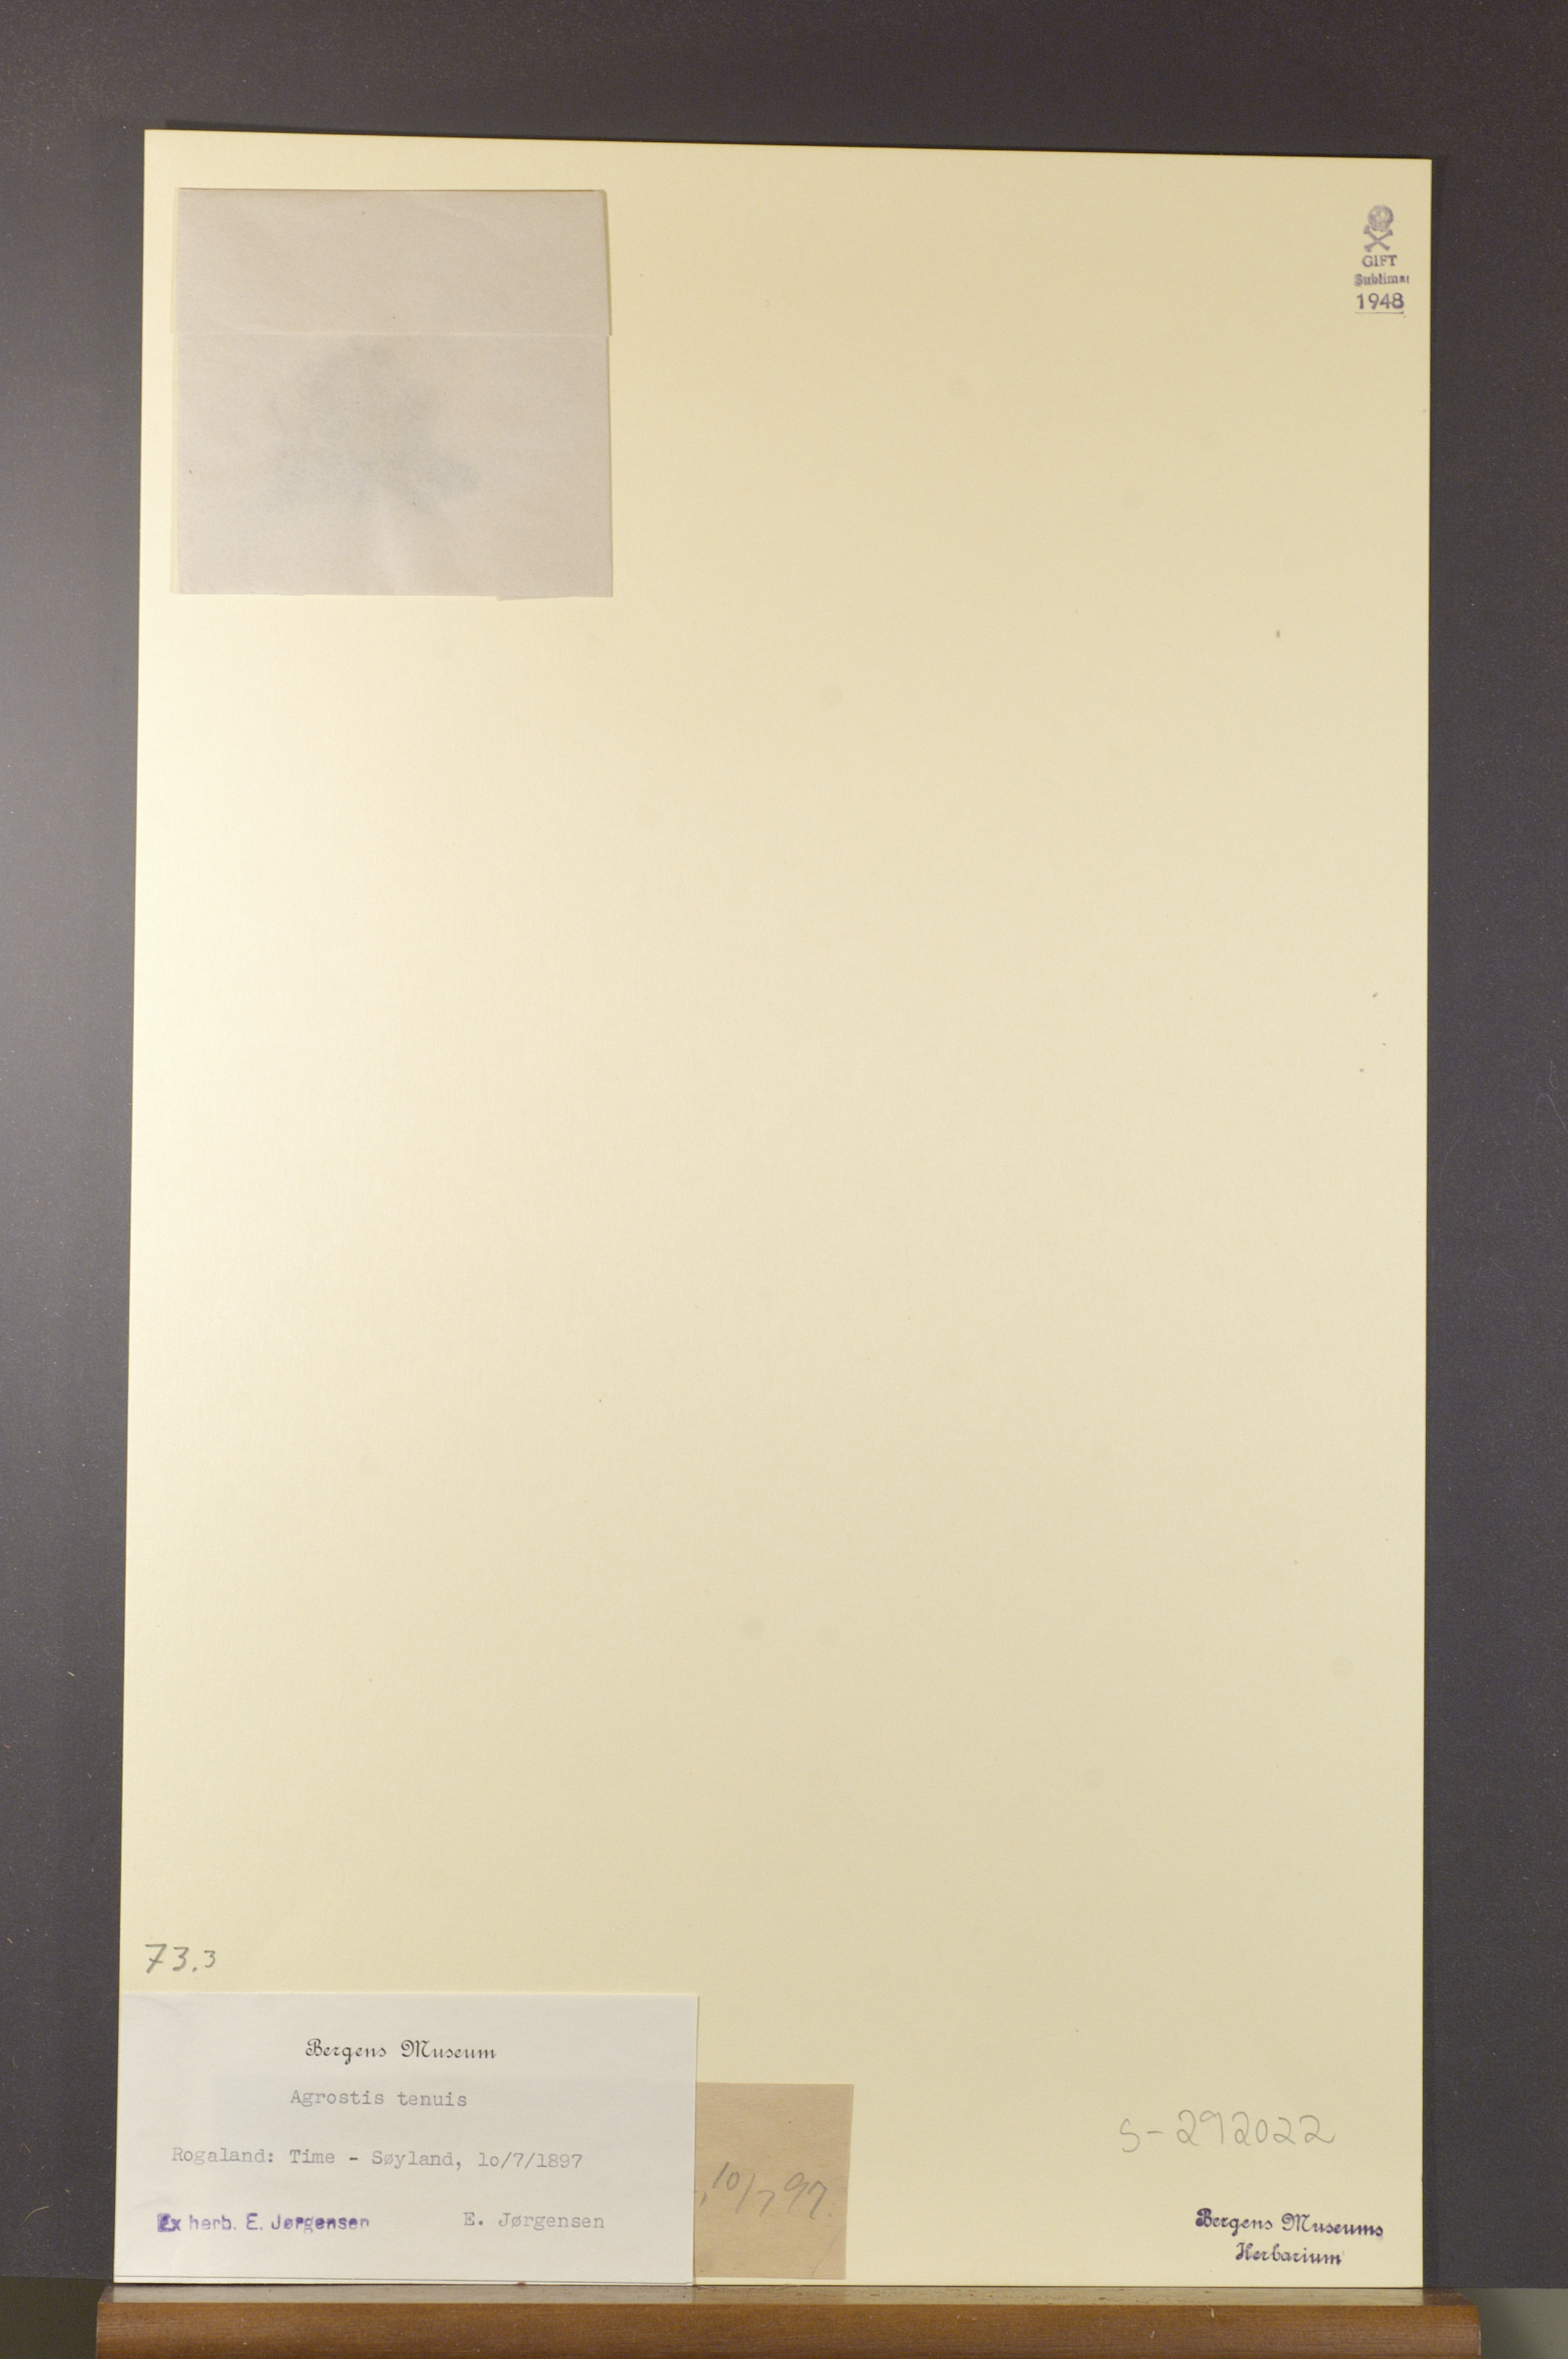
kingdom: Plantae
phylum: Tracheophyta
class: Liliopsida
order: Poales
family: Poaceae
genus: Agrostis
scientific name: Agrostis capillaris
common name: Colonial bentgrass
